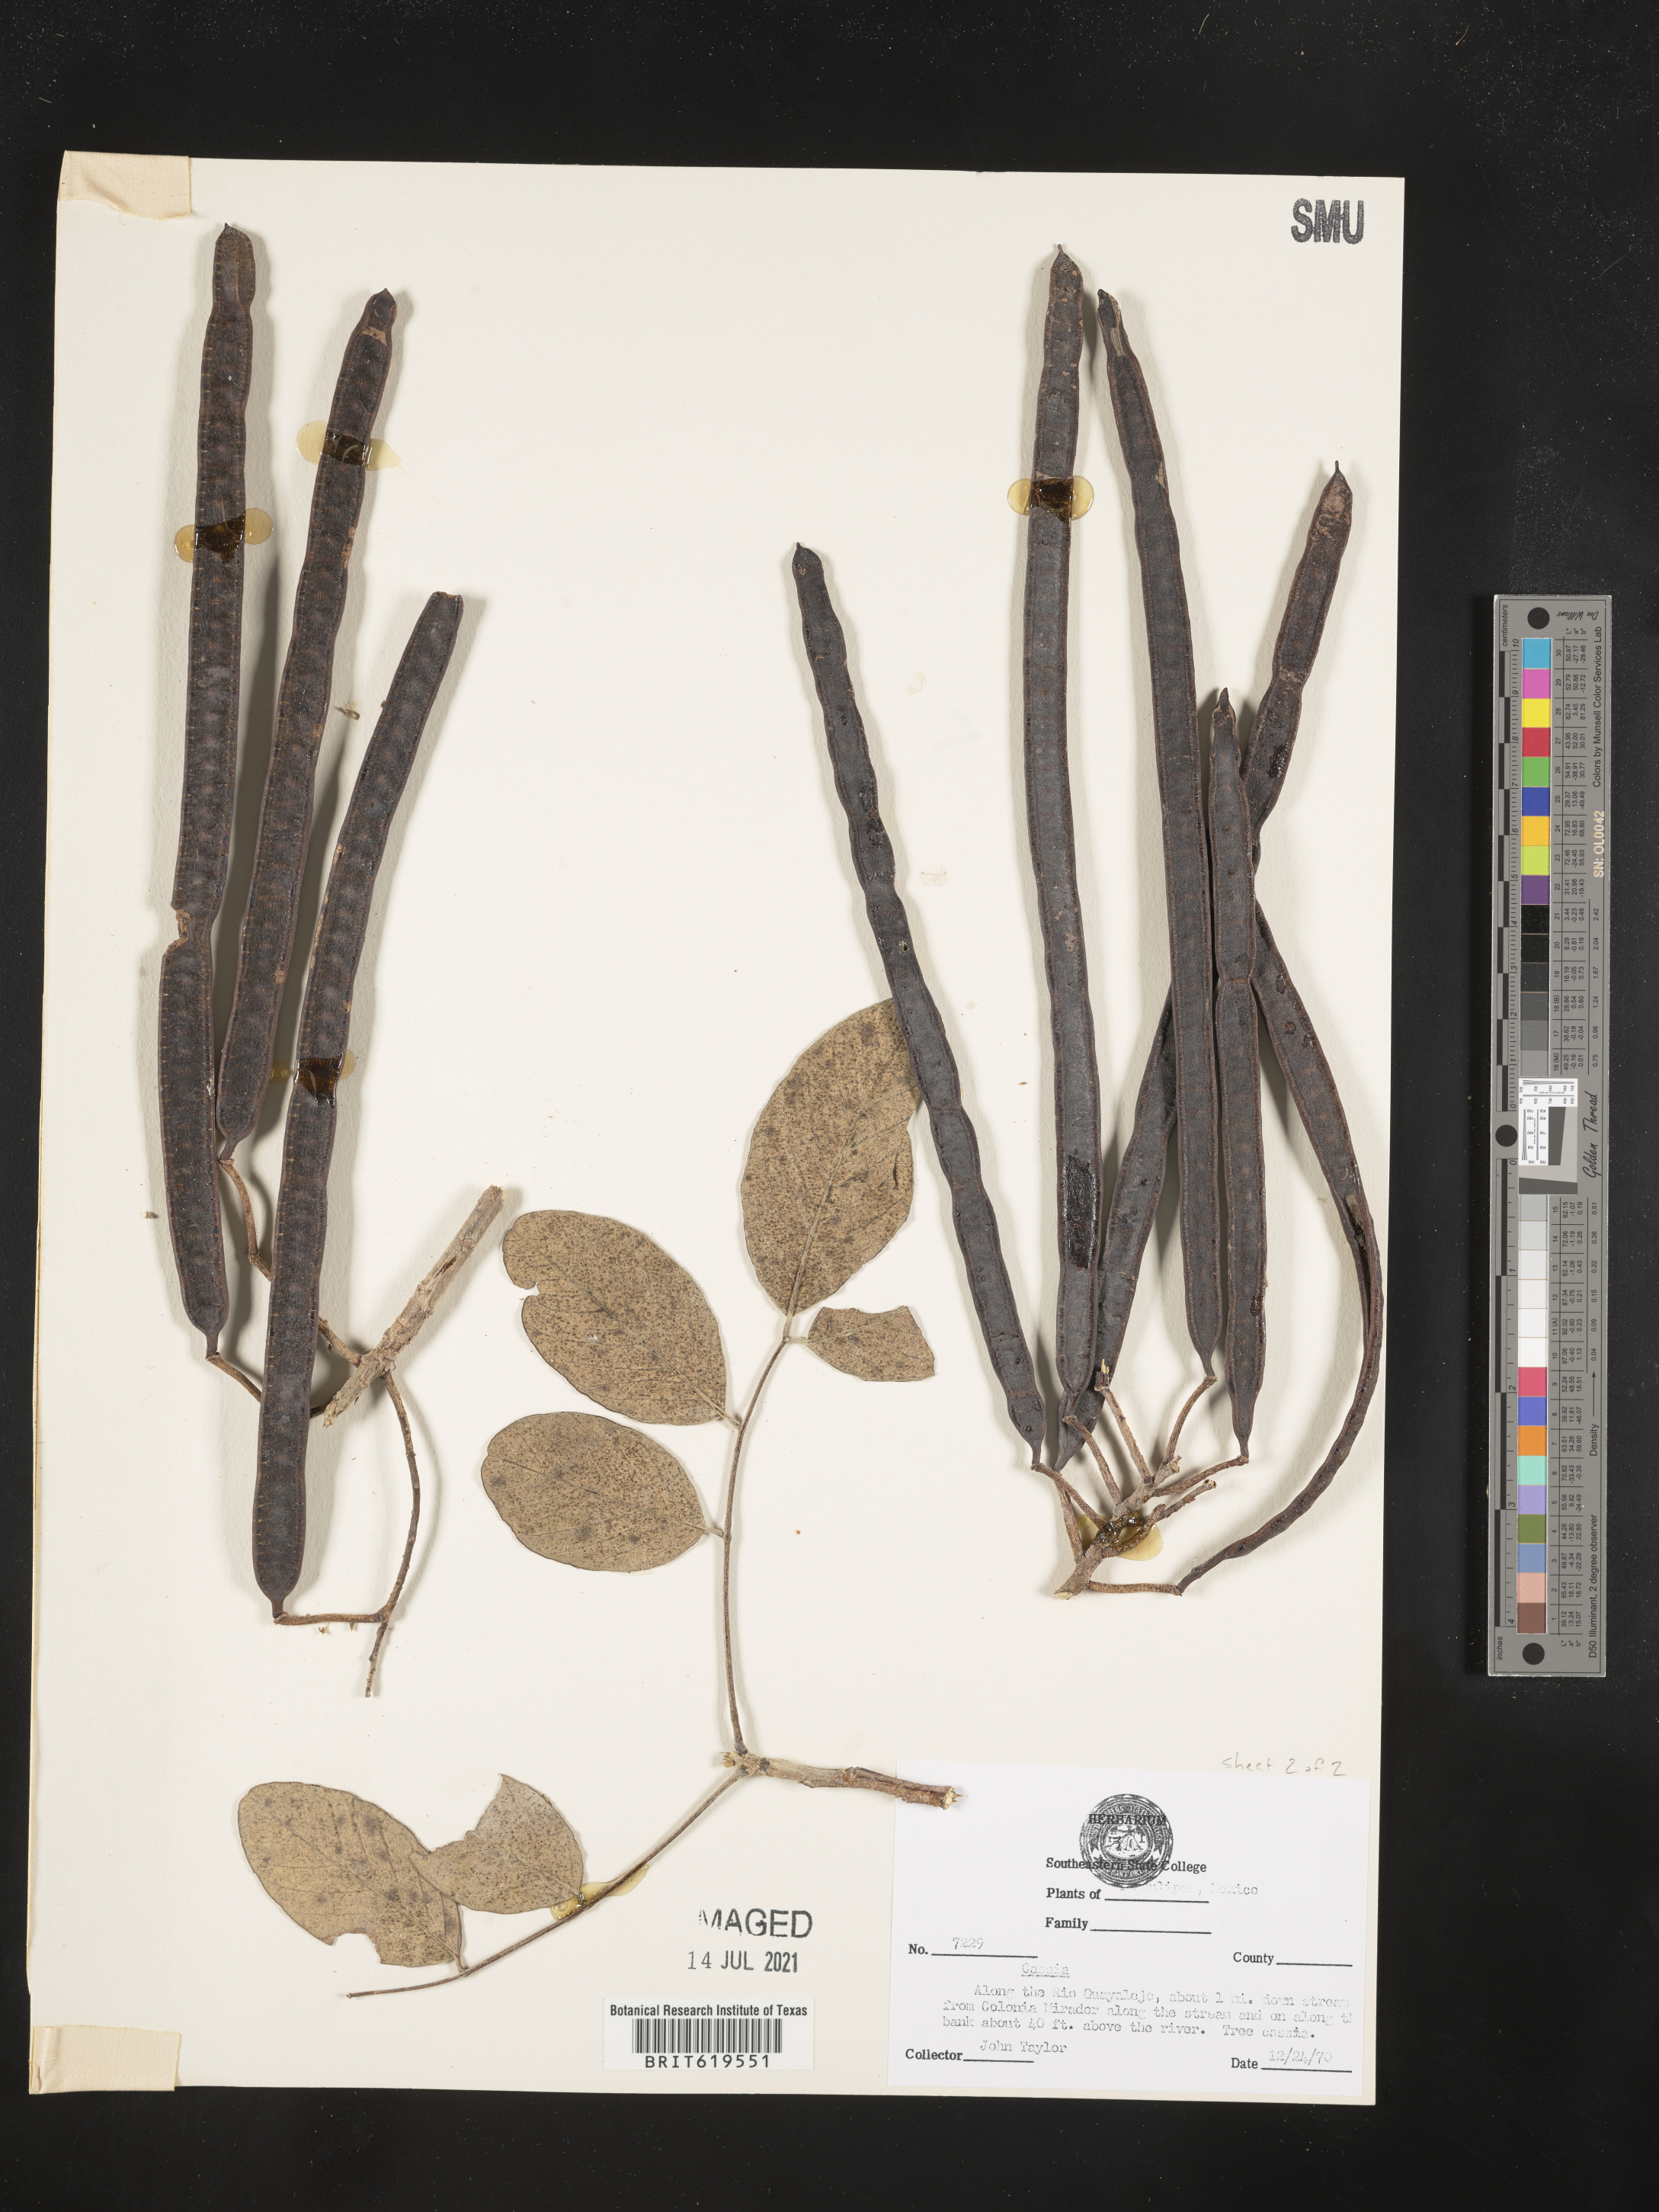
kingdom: Plantae
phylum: Tracheophyta
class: Magnoliopsida
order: Fabales
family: Fabaceae
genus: Cassia
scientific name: Cassia
